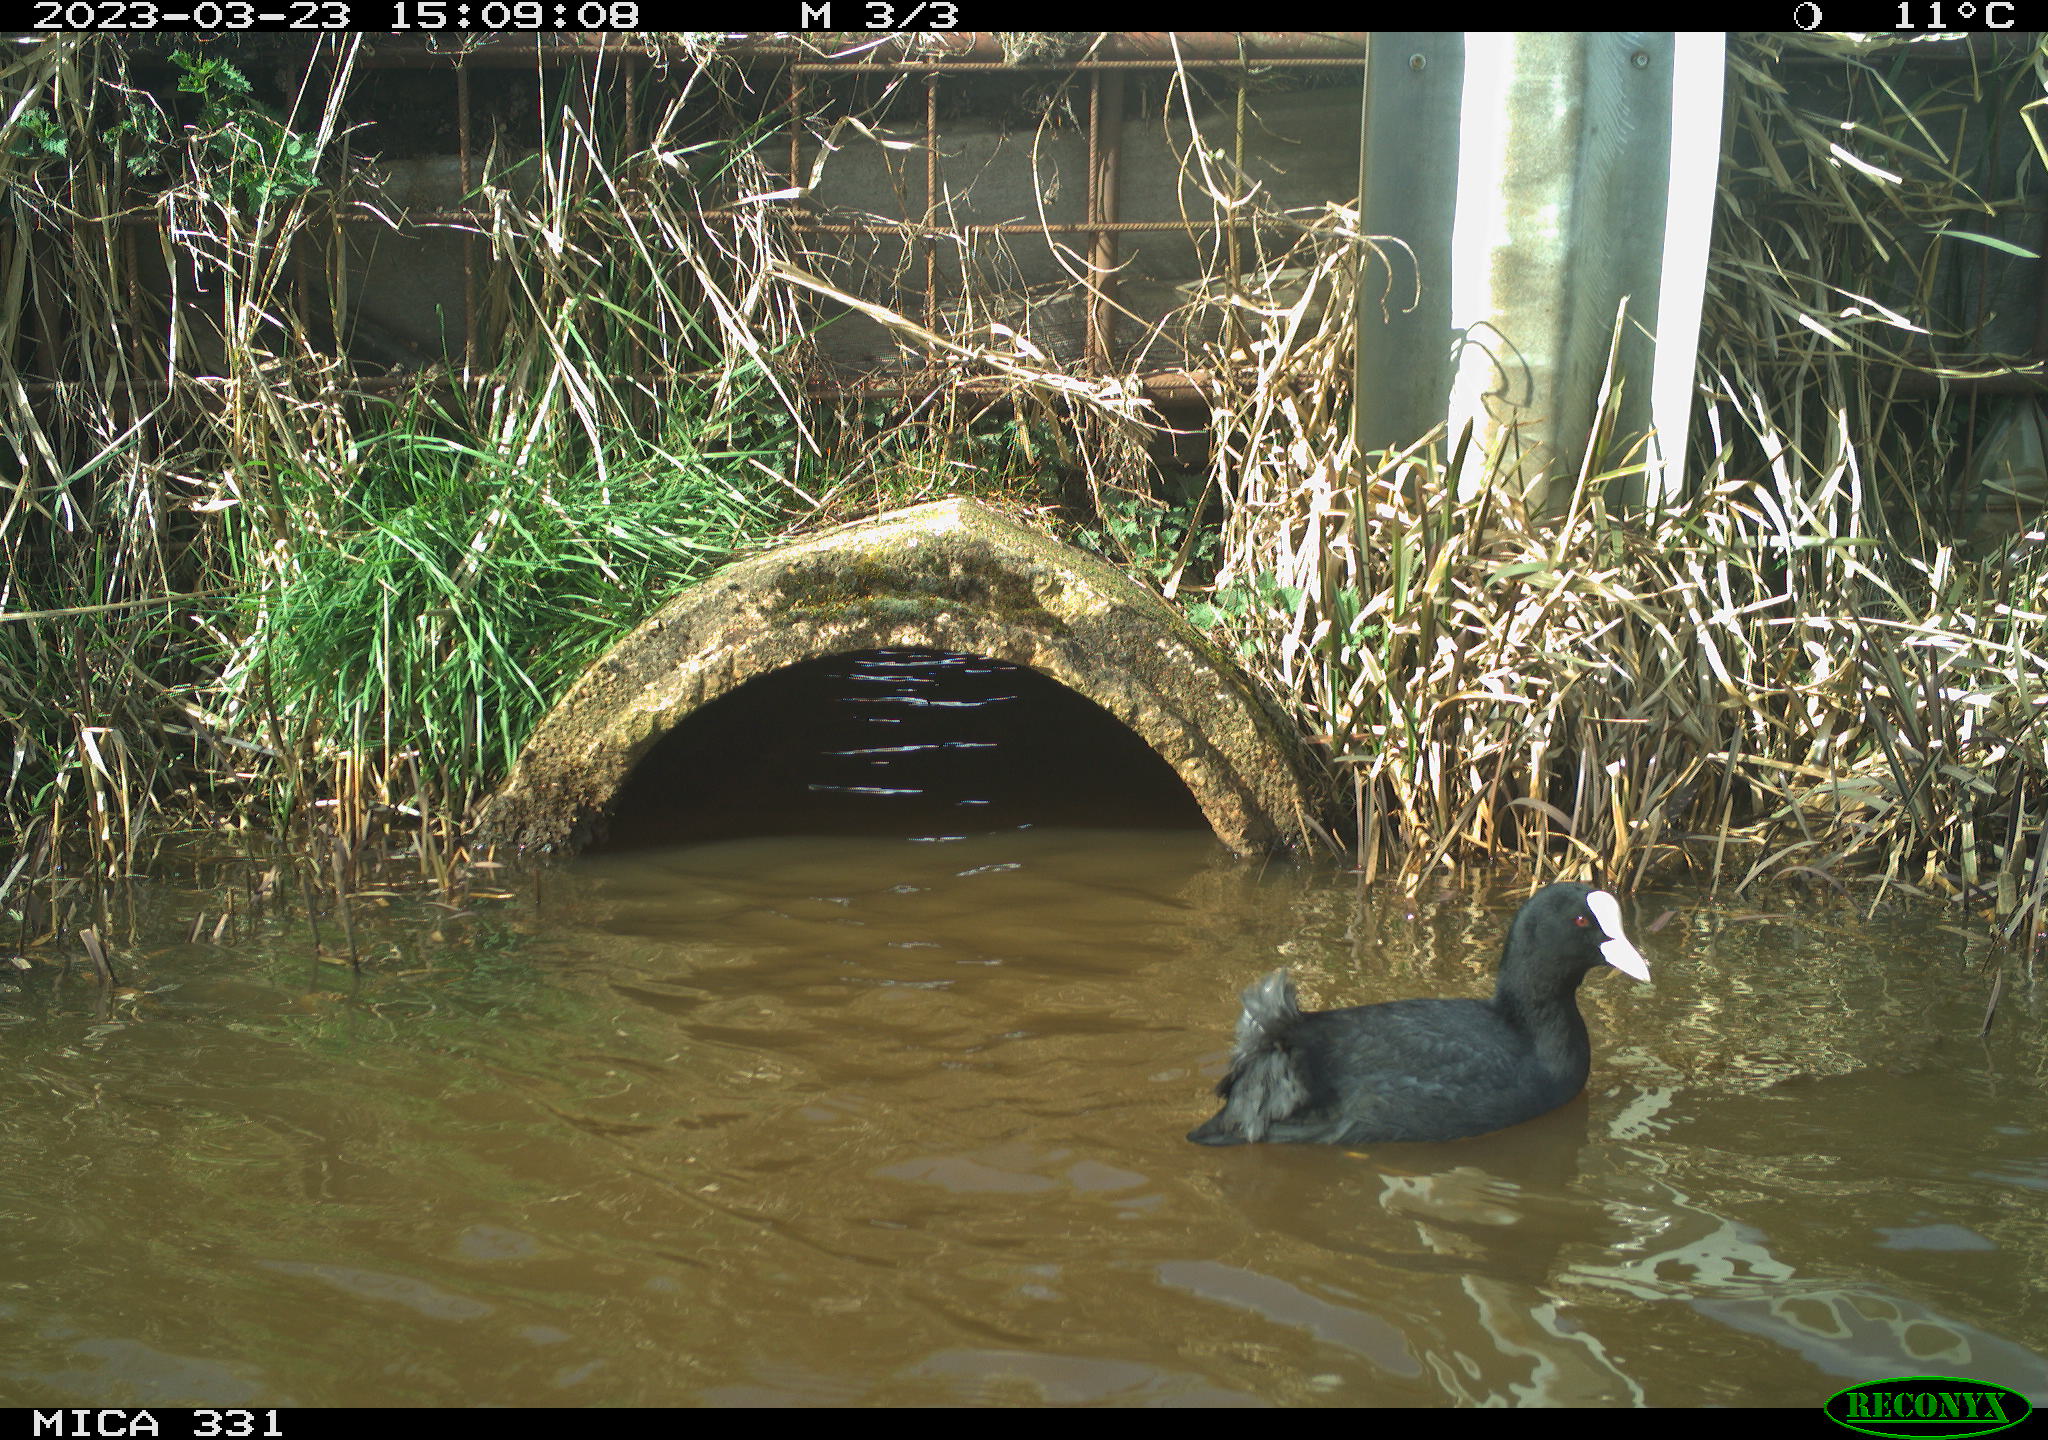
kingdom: Animalia
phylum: Chordata
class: Aves
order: Gruiformes
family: Rallidae
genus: Fulica
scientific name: Fulica atra
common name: Eurasian coot
